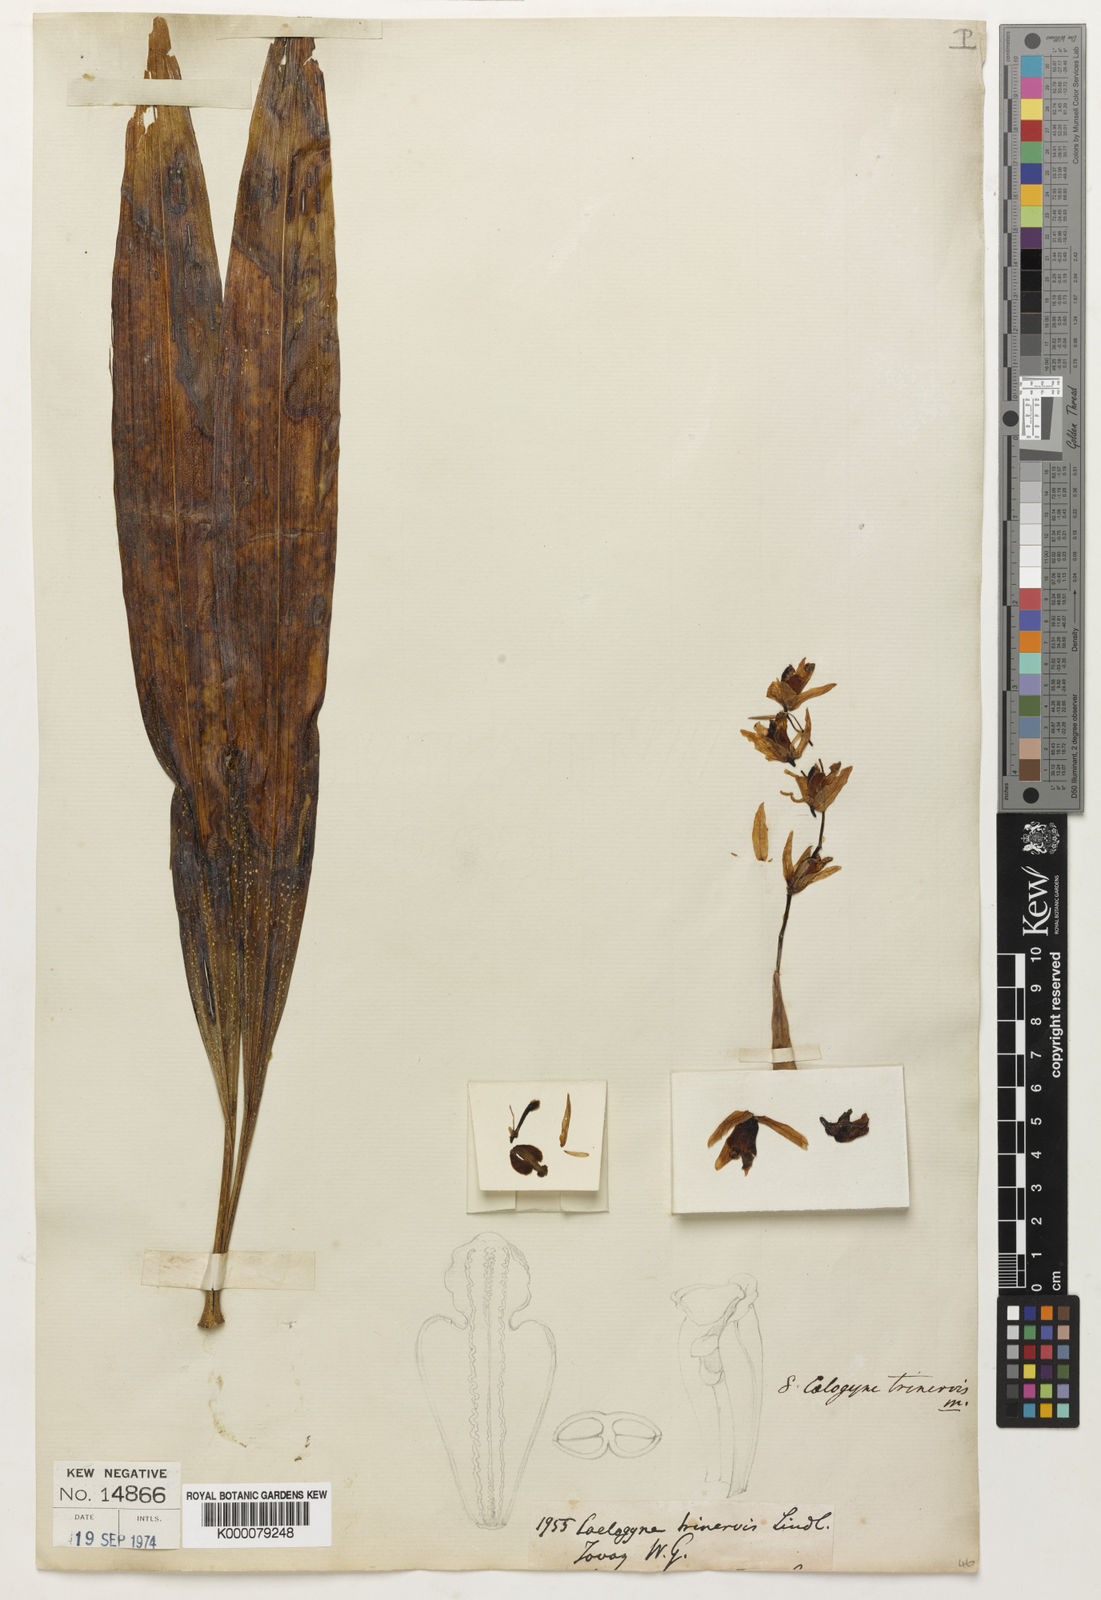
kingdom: Plantae
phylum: Tracheophyta
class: Liliopsida
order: Asparagales
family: Orchidaceae
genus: Coelogyne
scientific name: Coelogyne trinervis
